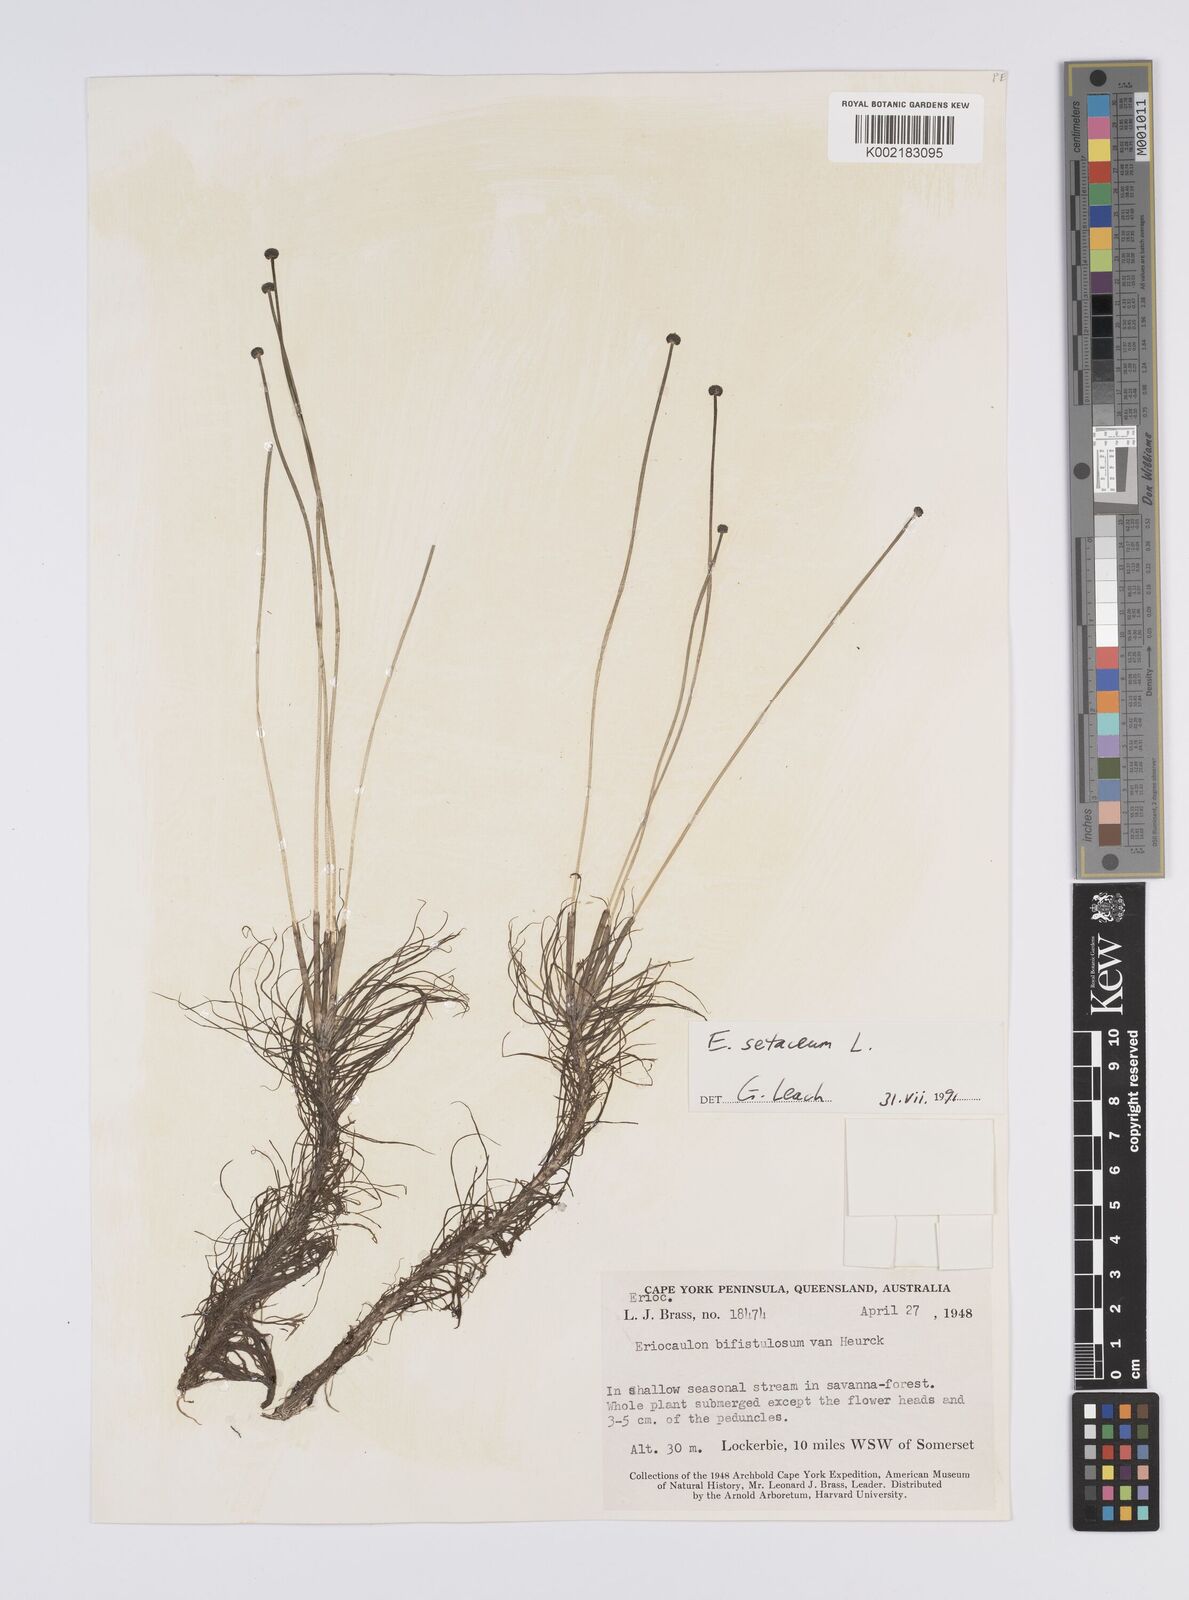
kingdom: Plantae
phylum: Tracheophyta
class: Liliopsida
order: Poales
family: Eriocaulaceae
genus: Eriocaulon
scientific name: Eriocaulon setaceum
